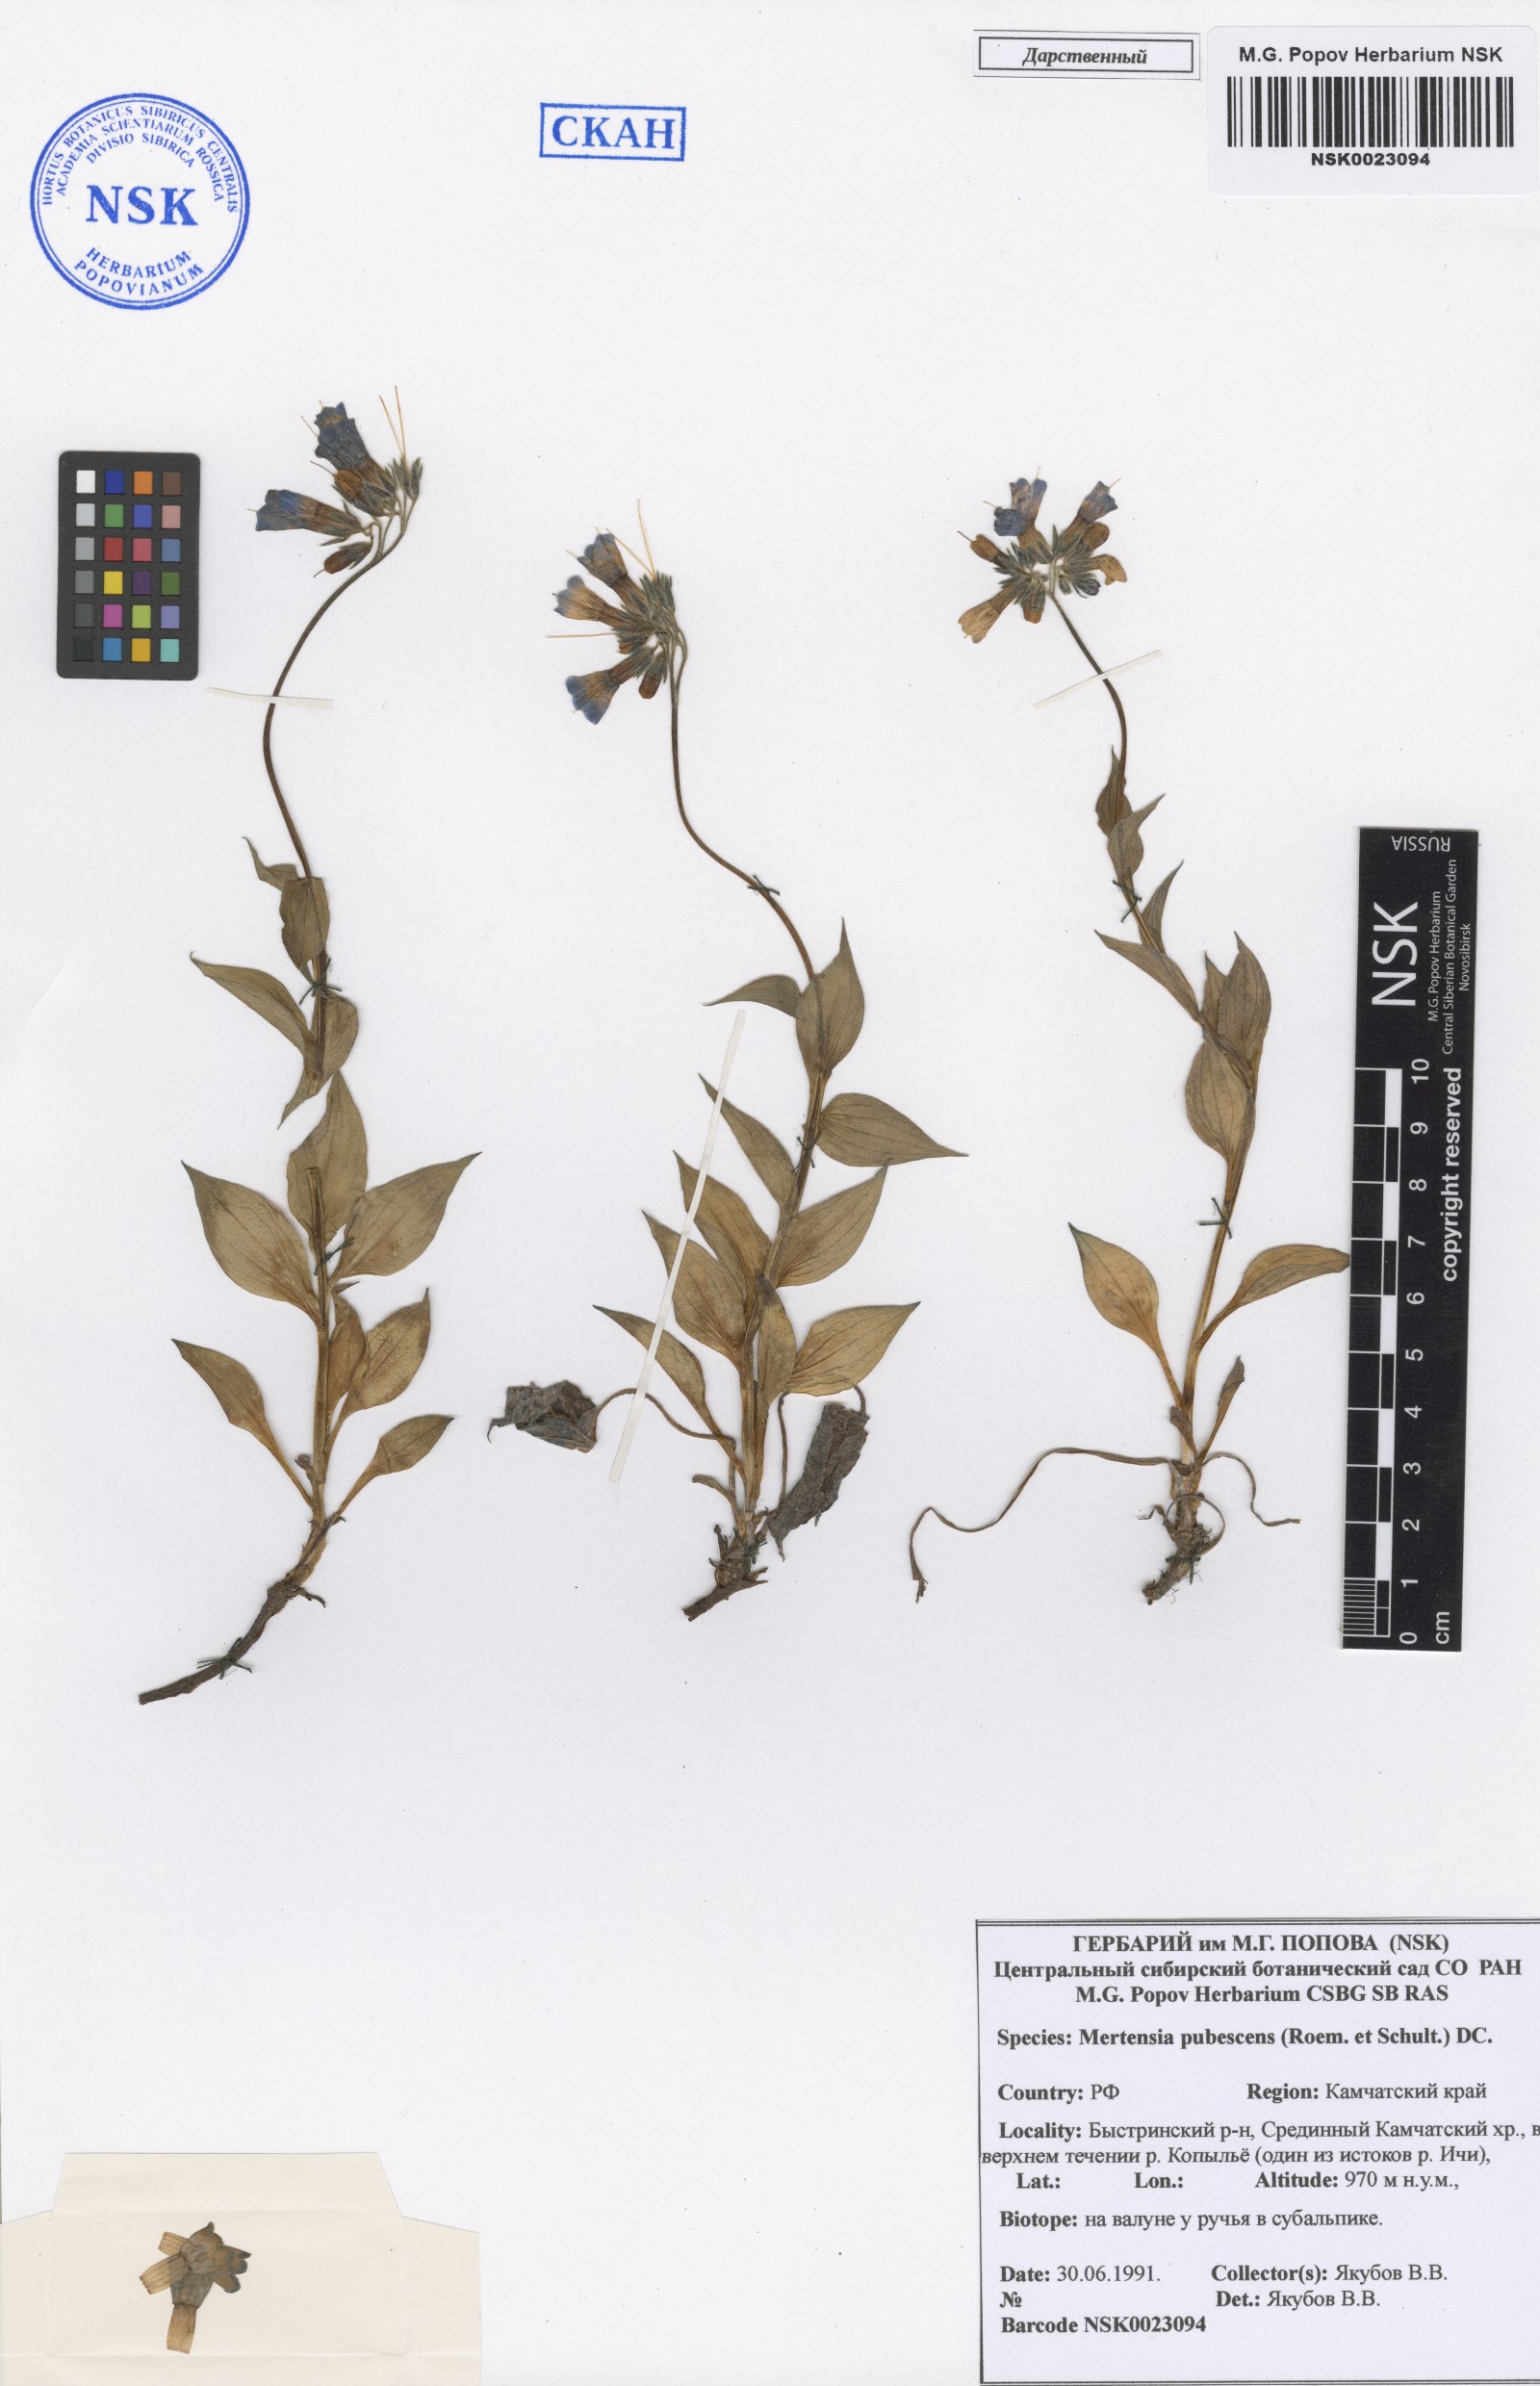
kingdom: Plantae
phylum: Tracheophyta
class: Magnoliopsida
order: Boraginales
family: Boraginaceae
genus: Mertensia
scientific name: Mertensia kamczatica
